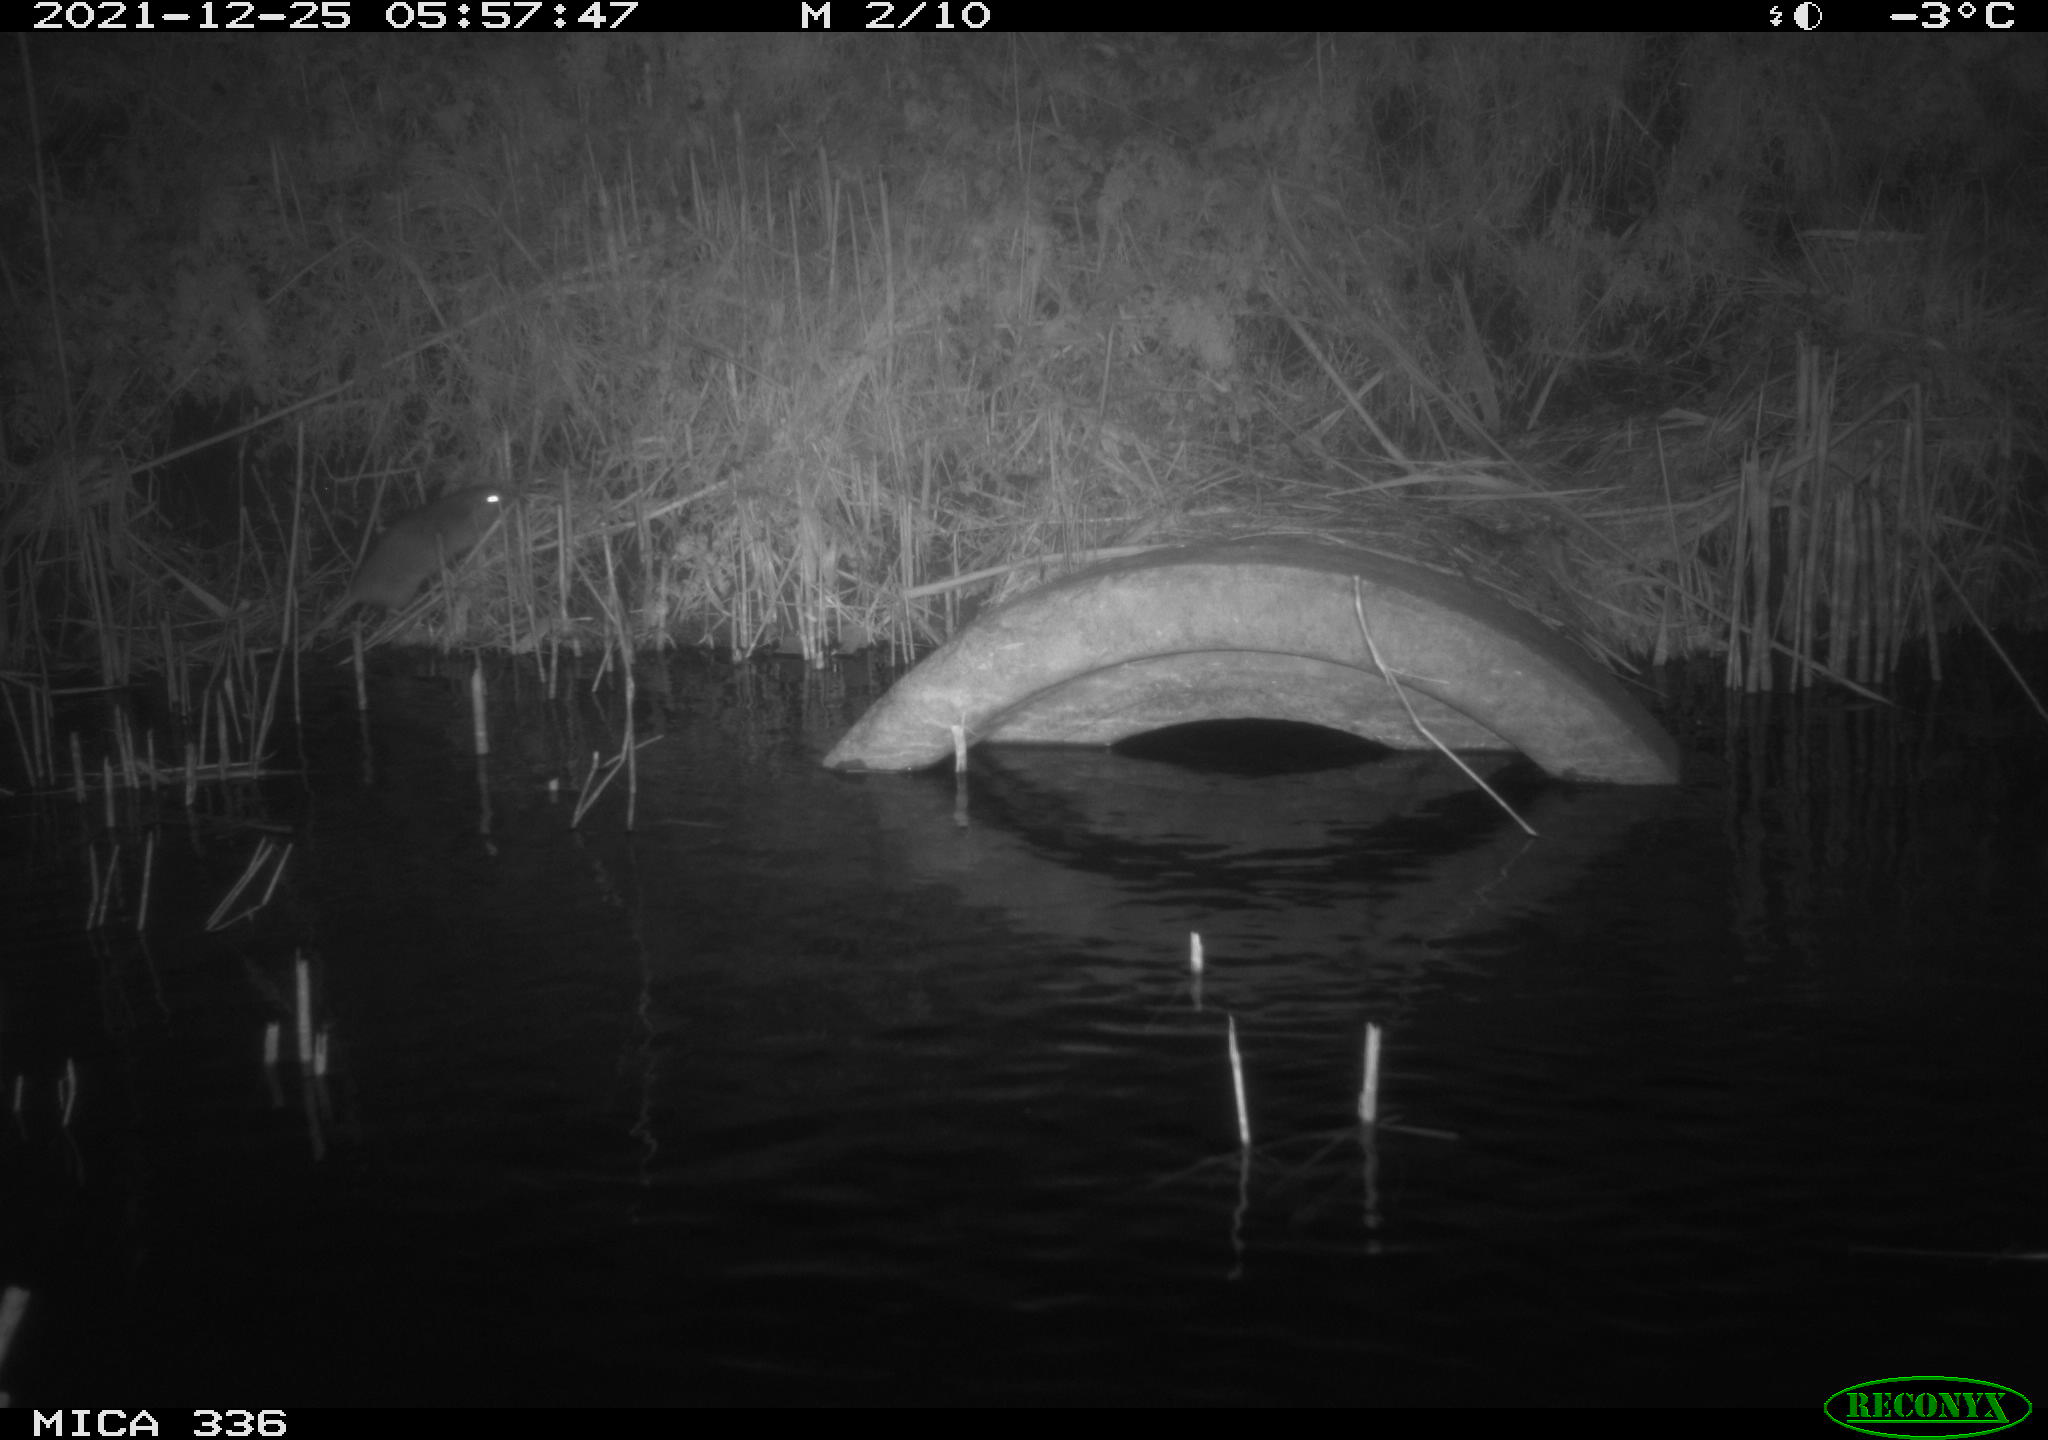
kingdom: Animalia
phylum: Chordata
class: Mammalia
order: Rodentia
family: Muridae
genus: Rattus
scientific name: Rattus norvegicus
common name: Brown rat
